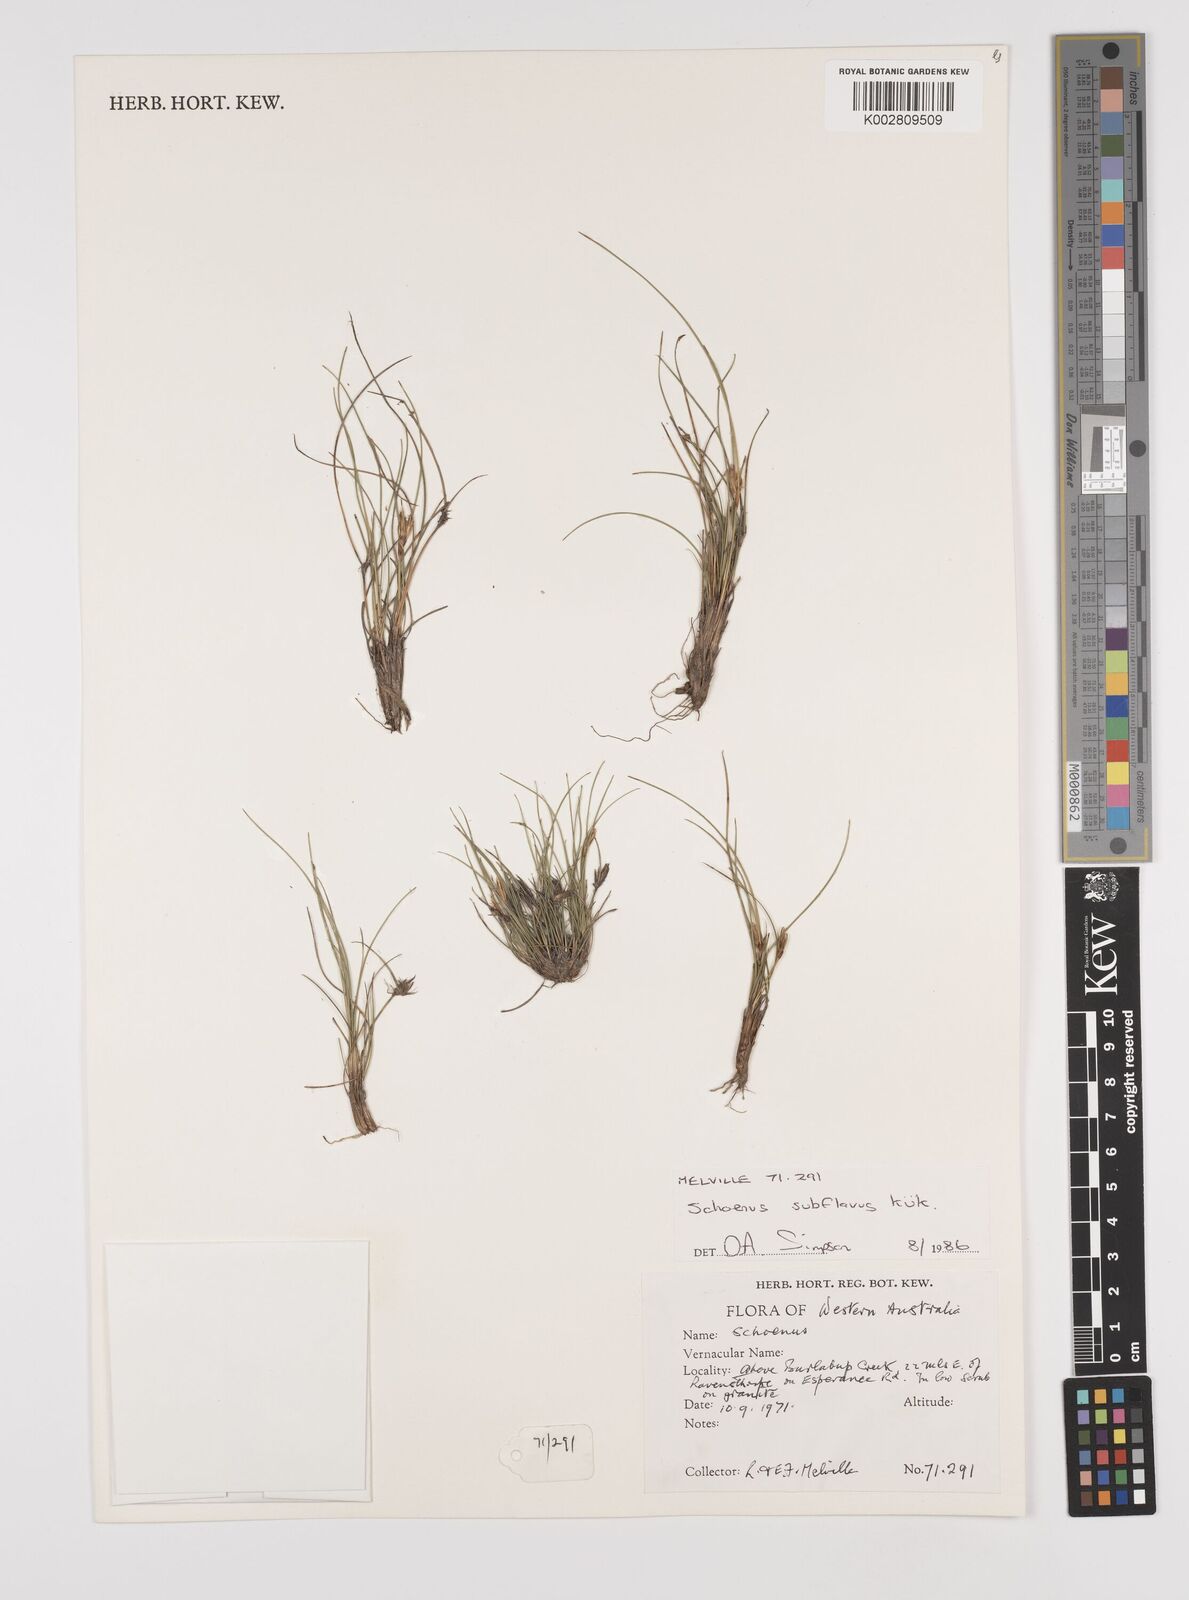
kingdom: Plantae
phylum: Tracheophyta
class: Liliopsida
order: Poales
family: Cyperaceae
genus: Schoenus
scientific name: Schoenus subflavus
